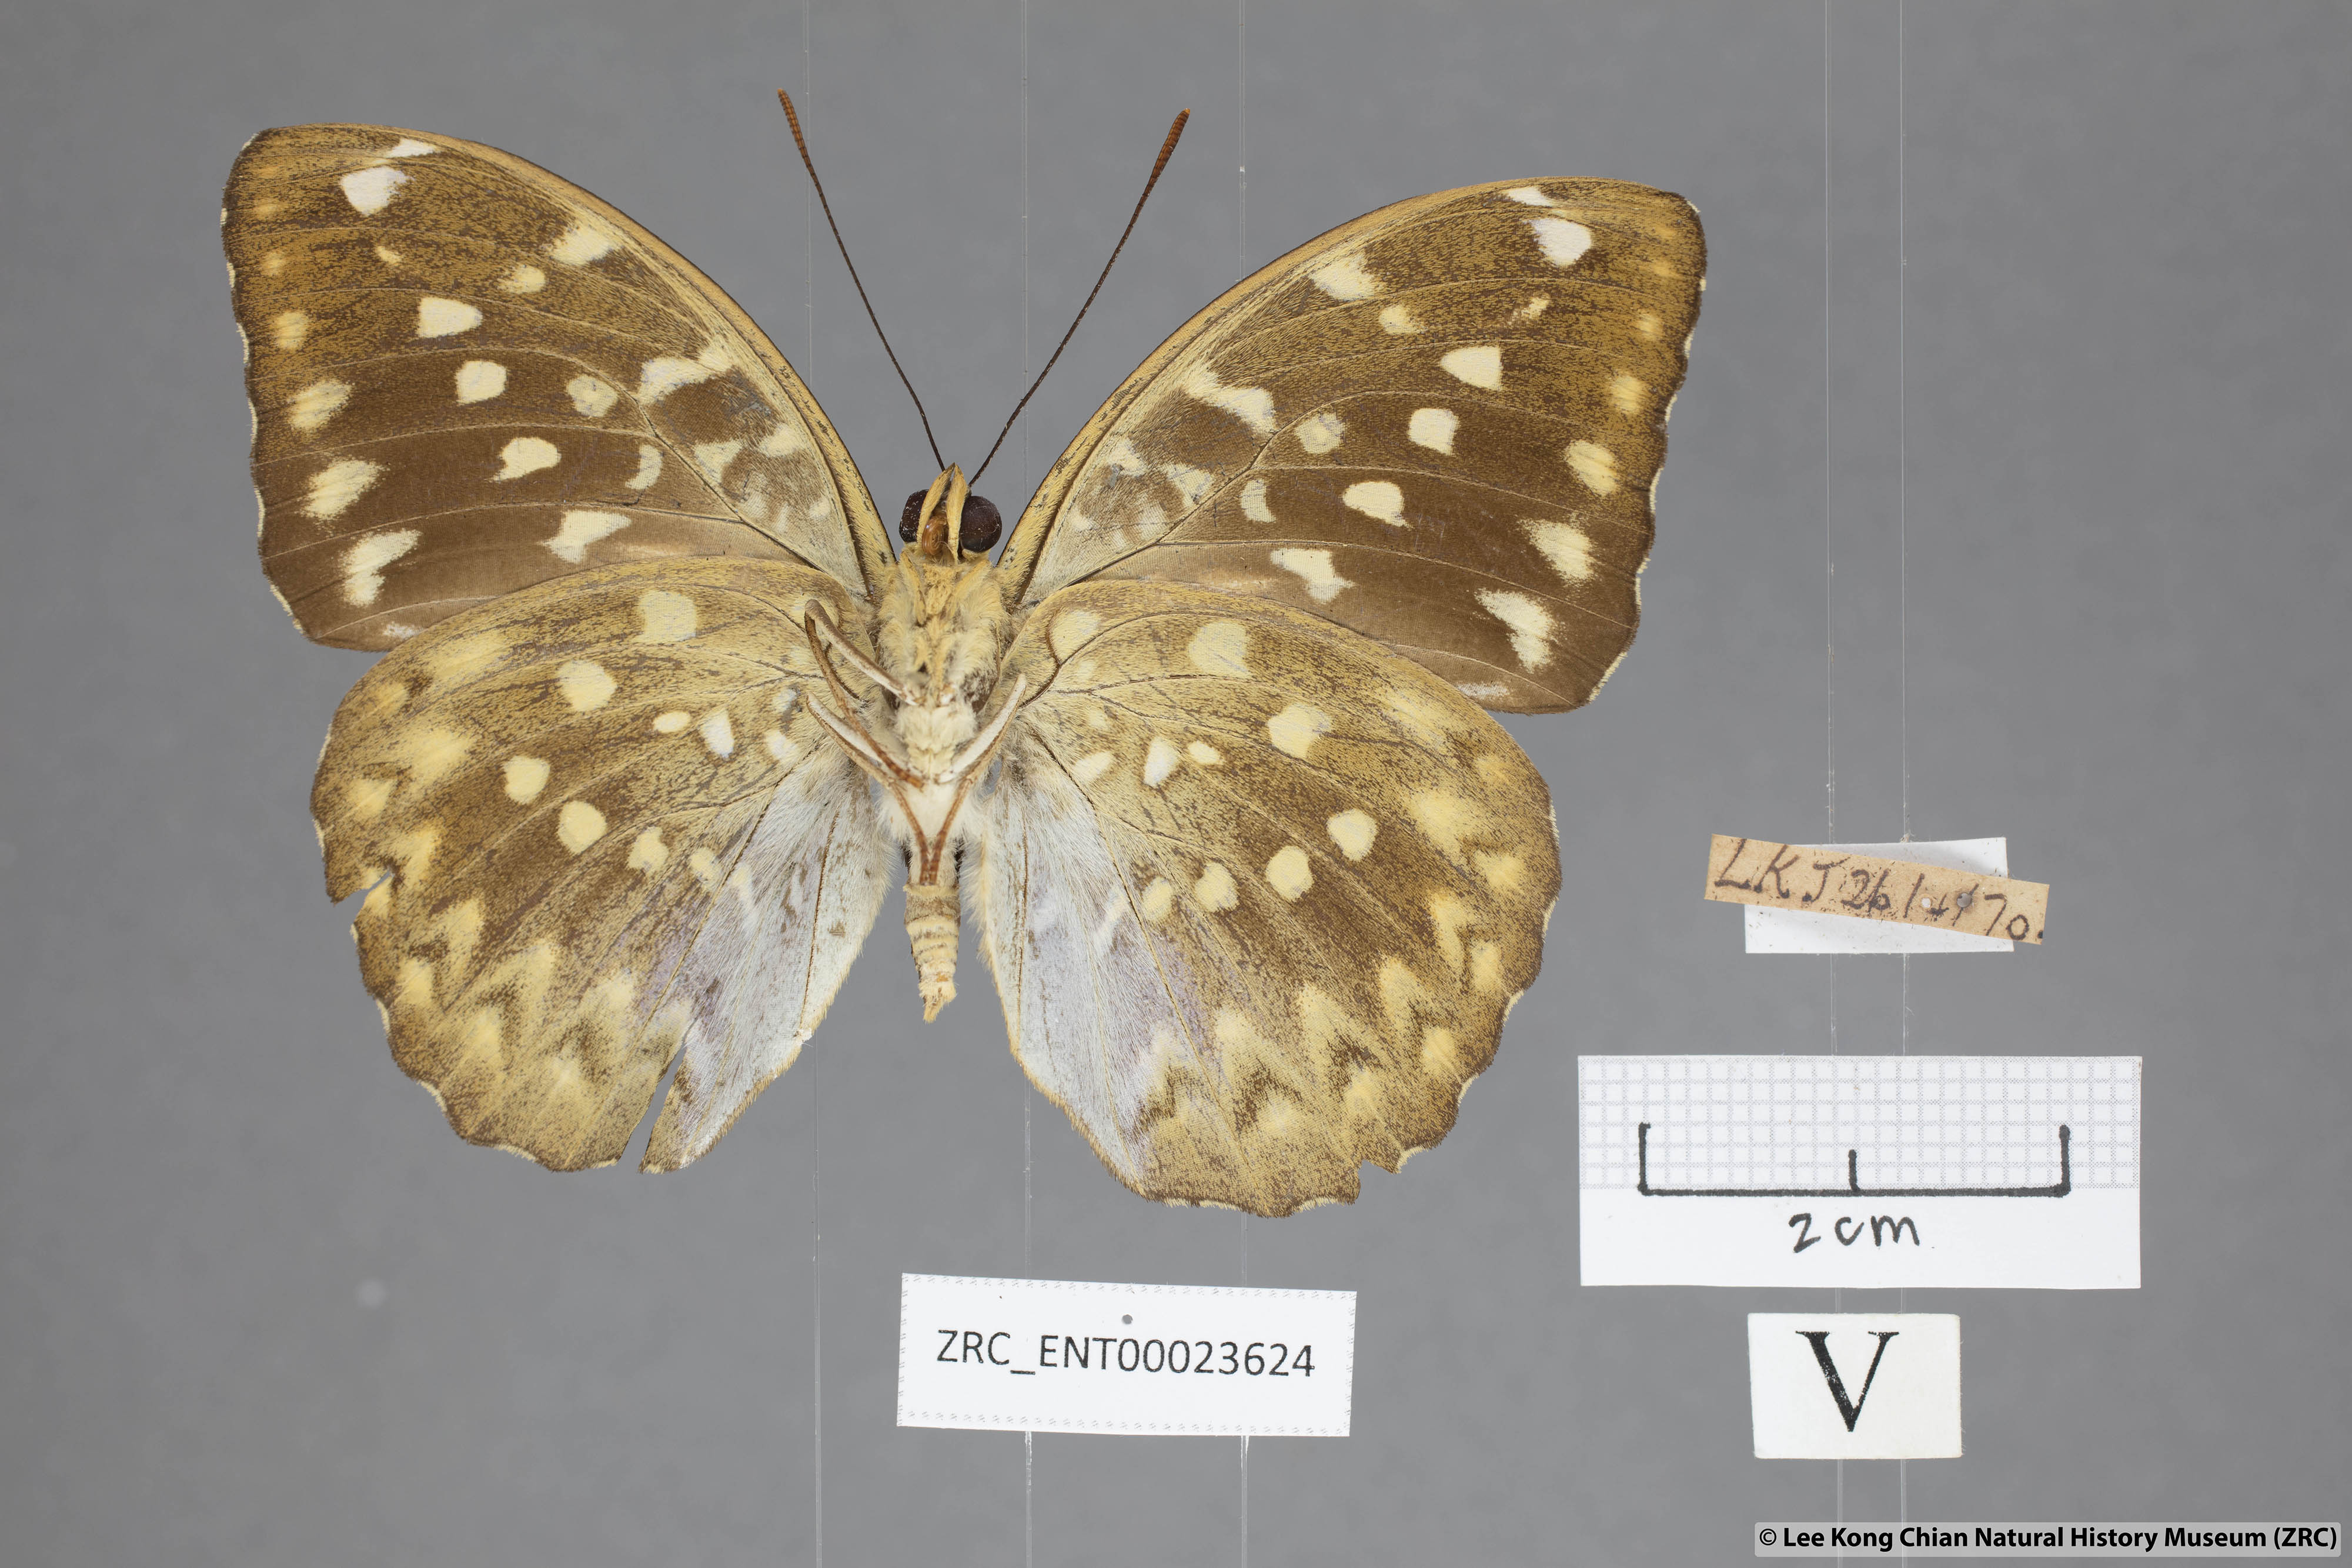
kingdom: Animalia
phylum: Arthropoda
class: Insecta
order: Lepidoptera
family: Nymphalidae
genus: Lexias
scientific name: Lexias canescens
